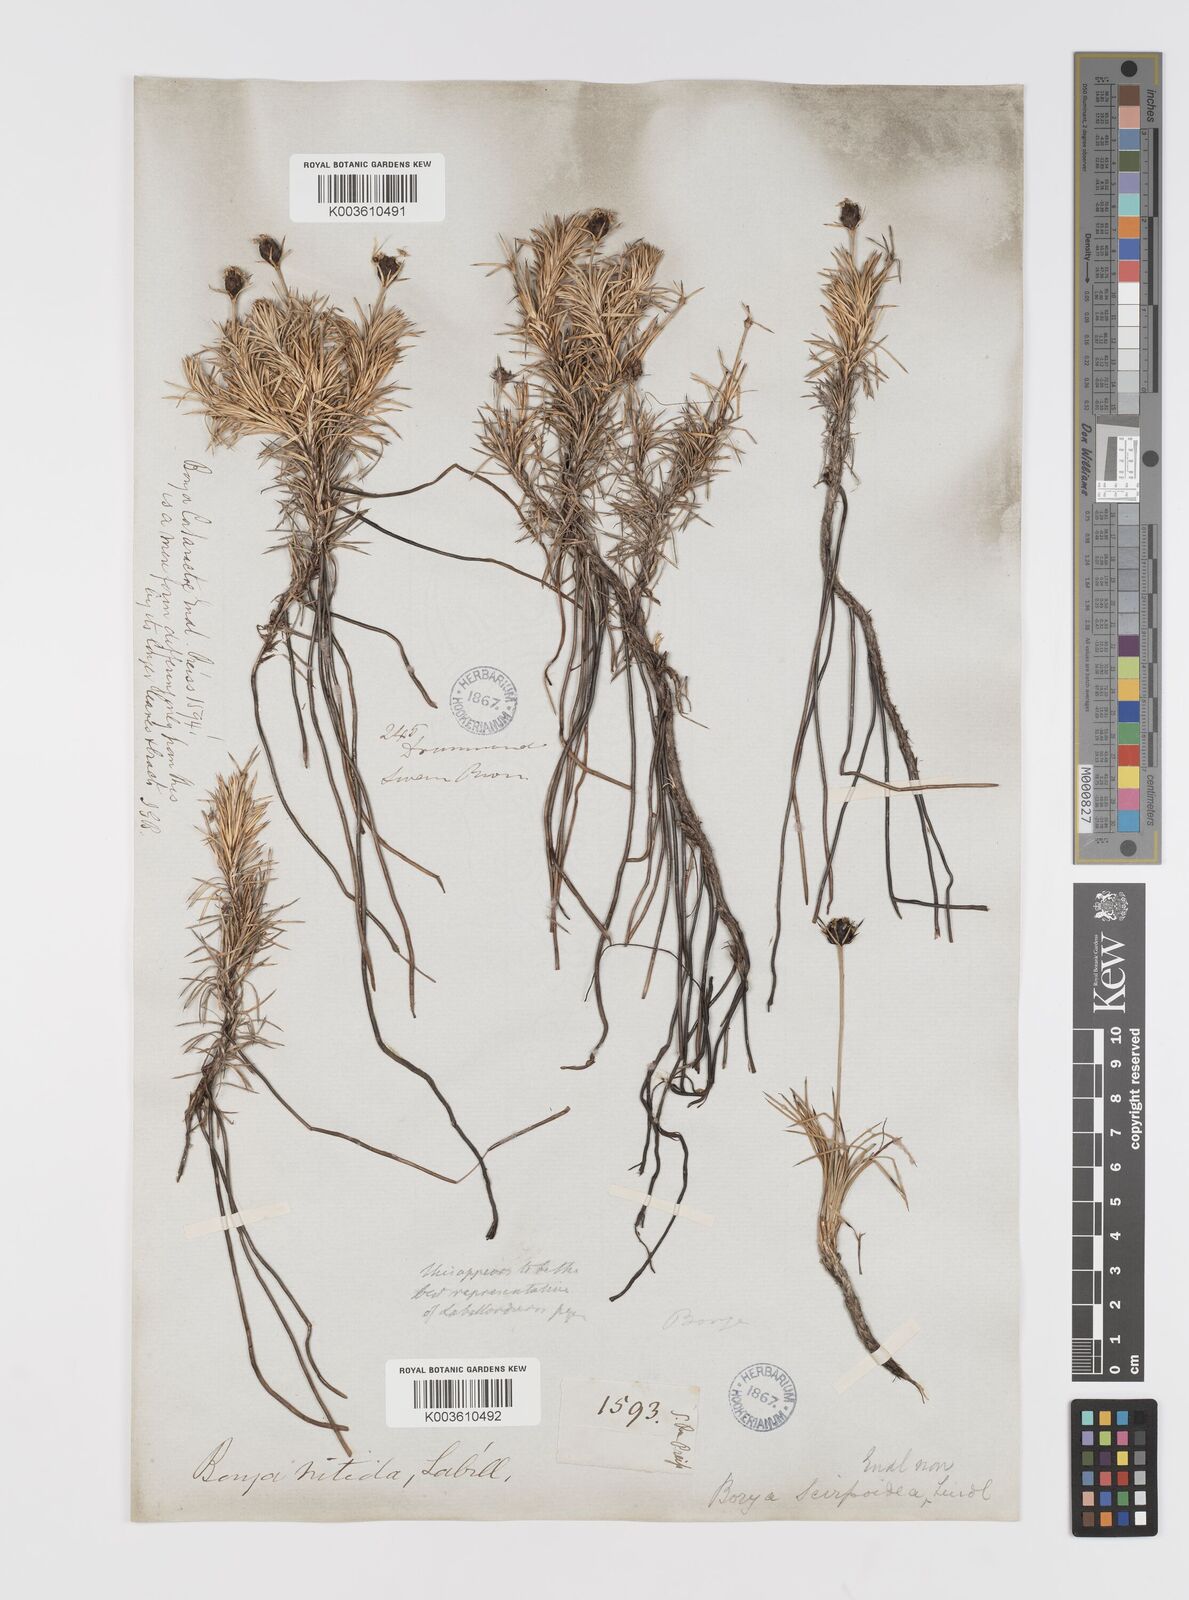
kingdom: Plantae
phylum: Tracheophyta
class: Liliopsida
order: Asparagales
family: Boryaceae
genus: Borya
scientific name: Borya nitida
